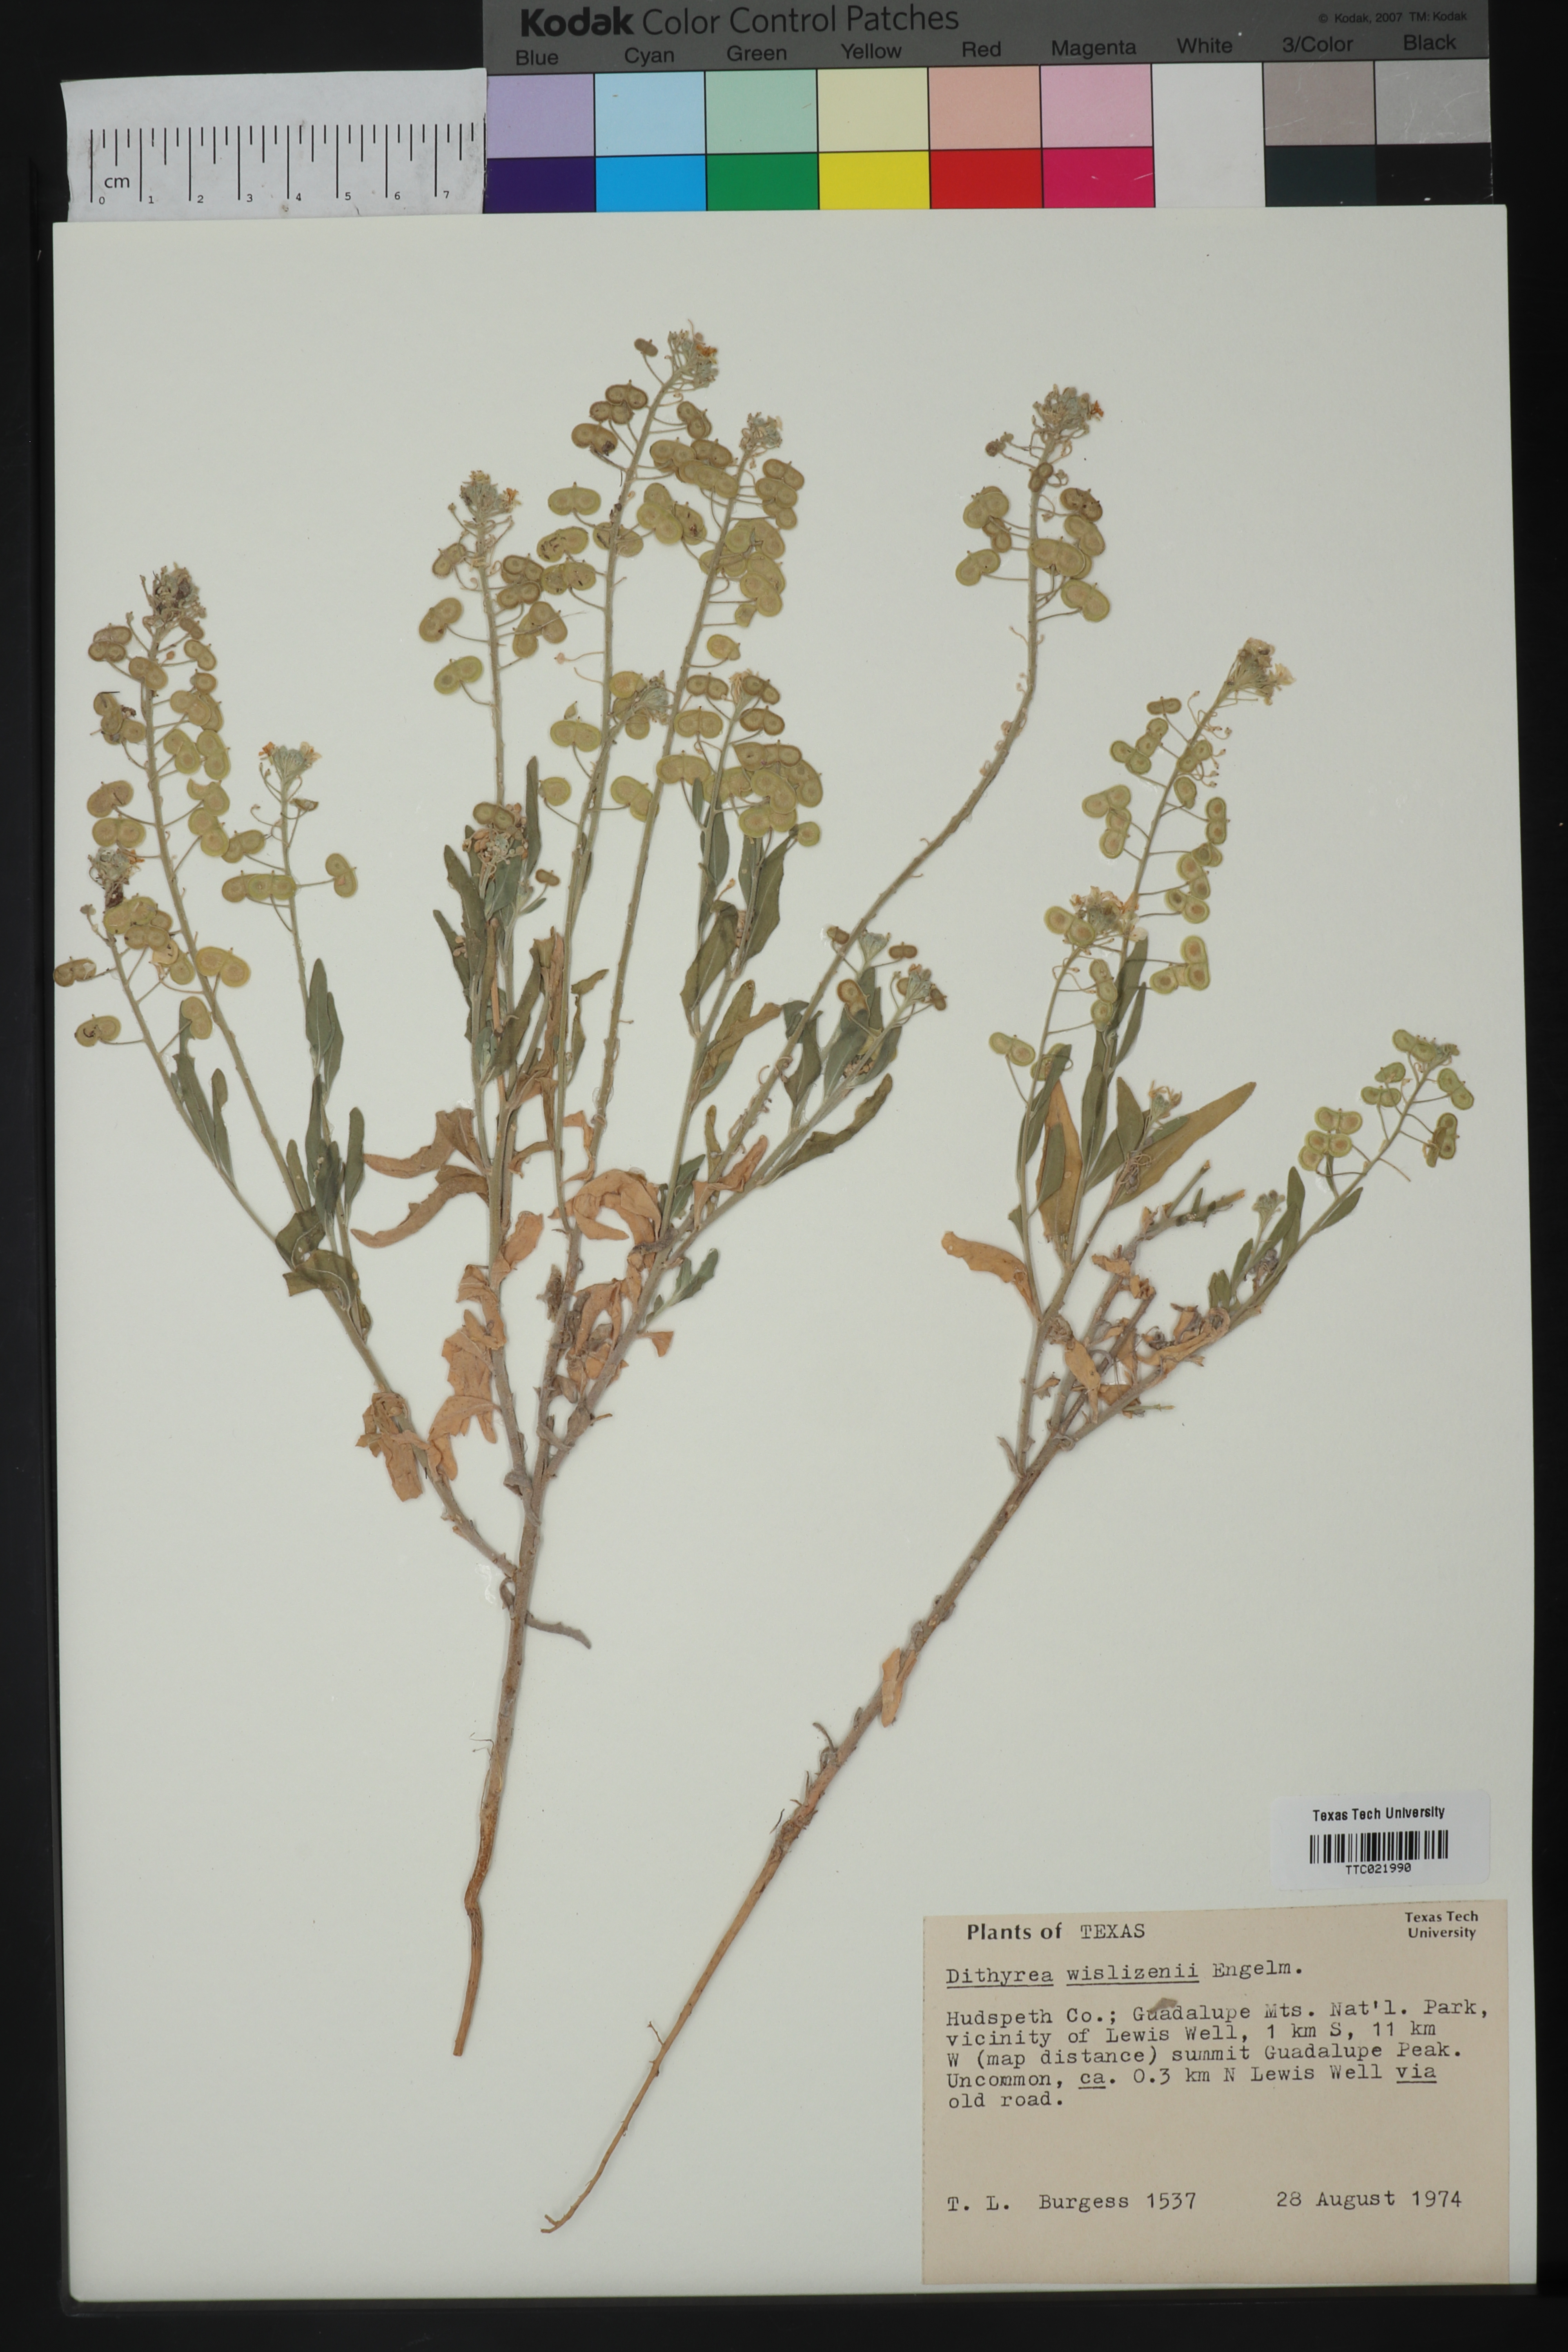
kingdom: Plantae
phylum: Tracheophyta
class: Magnoliopsida
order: Brassicales
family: Brassicaceae
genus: Dimorphocarpa
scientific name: Dimorphocarpa wislizenii
